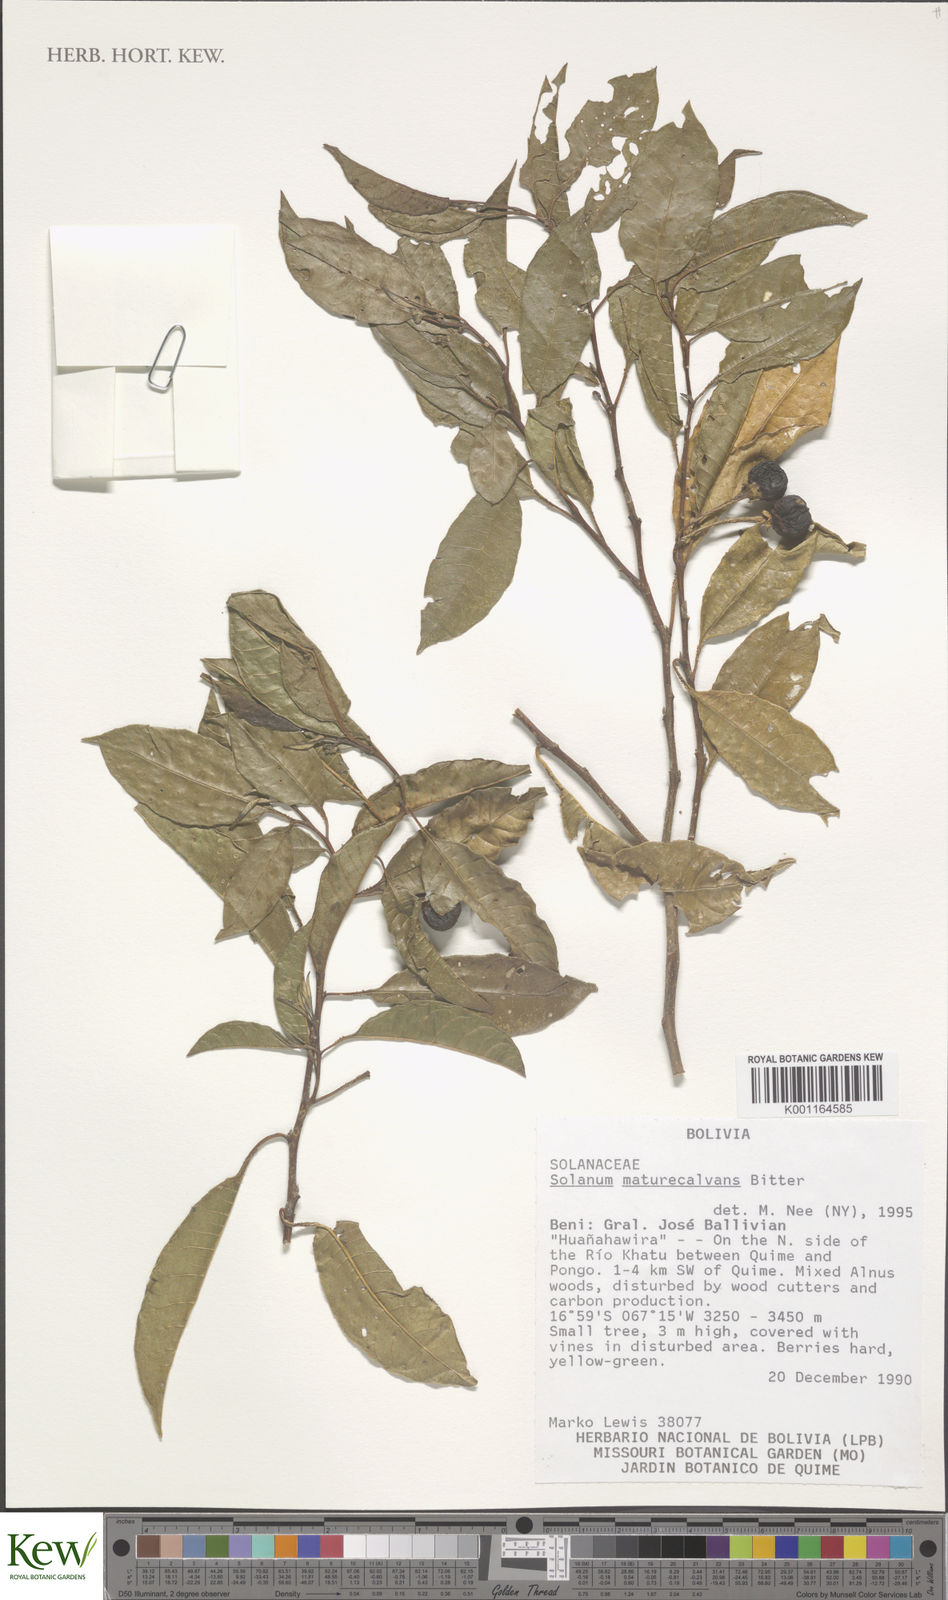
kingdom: Plantae
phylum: Tracheophyta
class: Magnoliopsida
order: Solanales
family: Solanaceae
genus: Solanum
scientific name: Solanum maturecalvans
